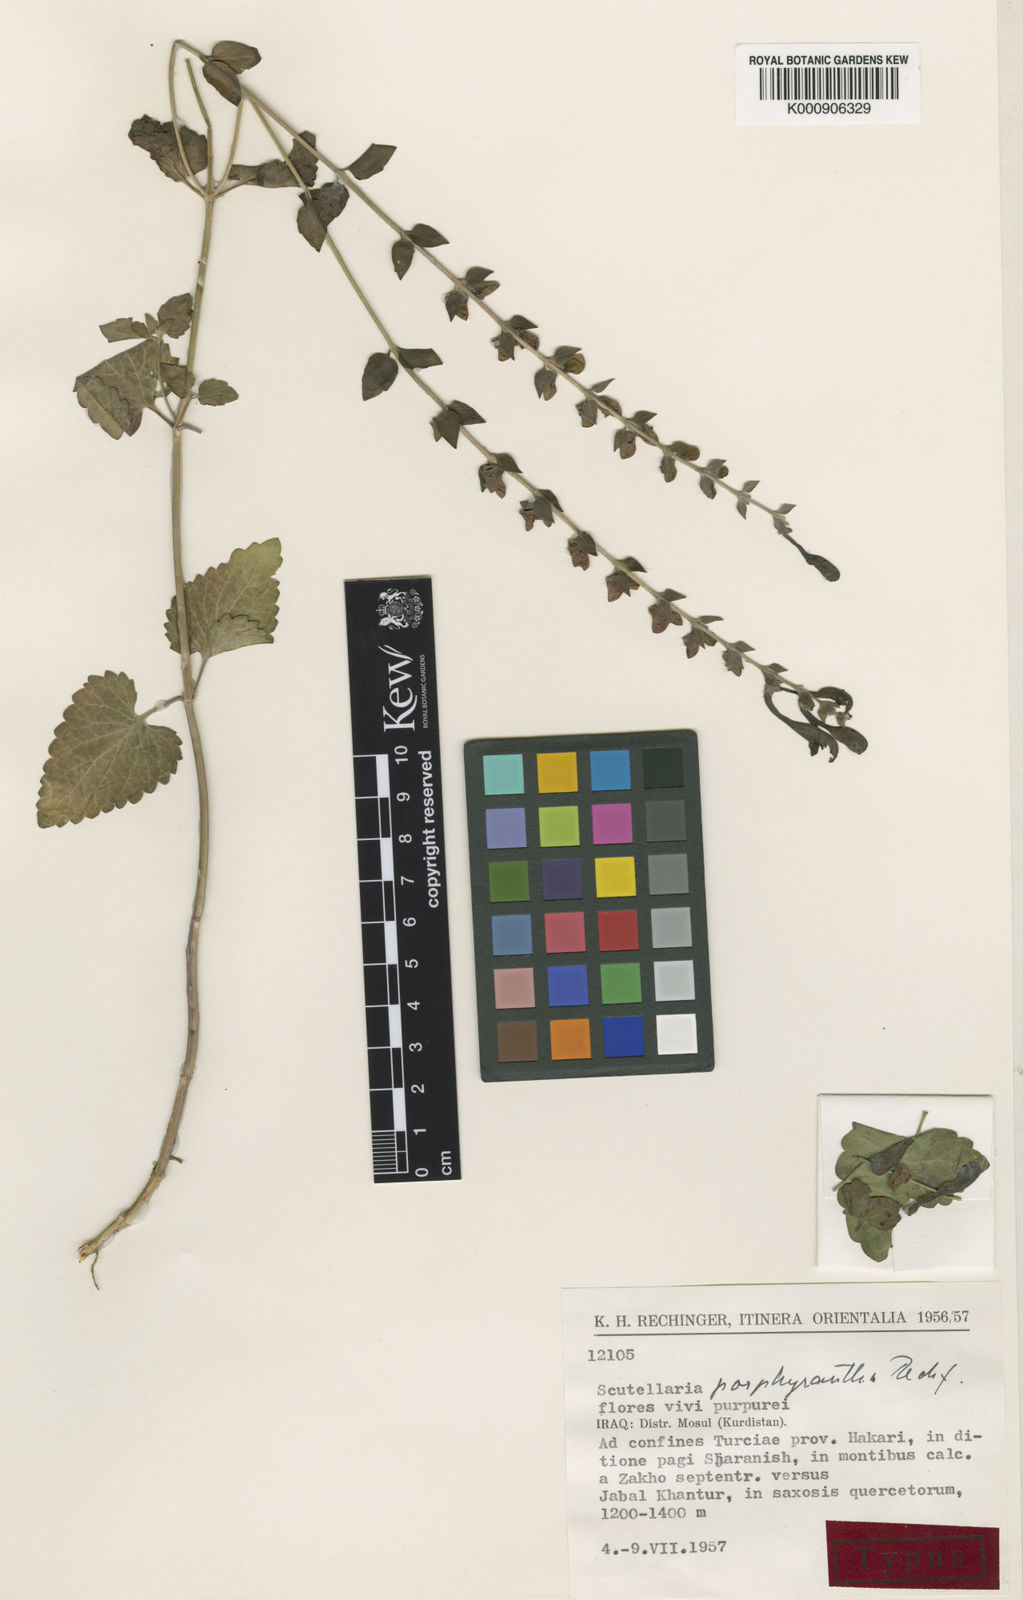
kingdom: Plantae
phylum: Tracheophyta
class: Magnoliopsida
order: Lamiales
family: Lamiaceae
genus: Scutellaria
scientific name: Scutellaria porphyrantha
